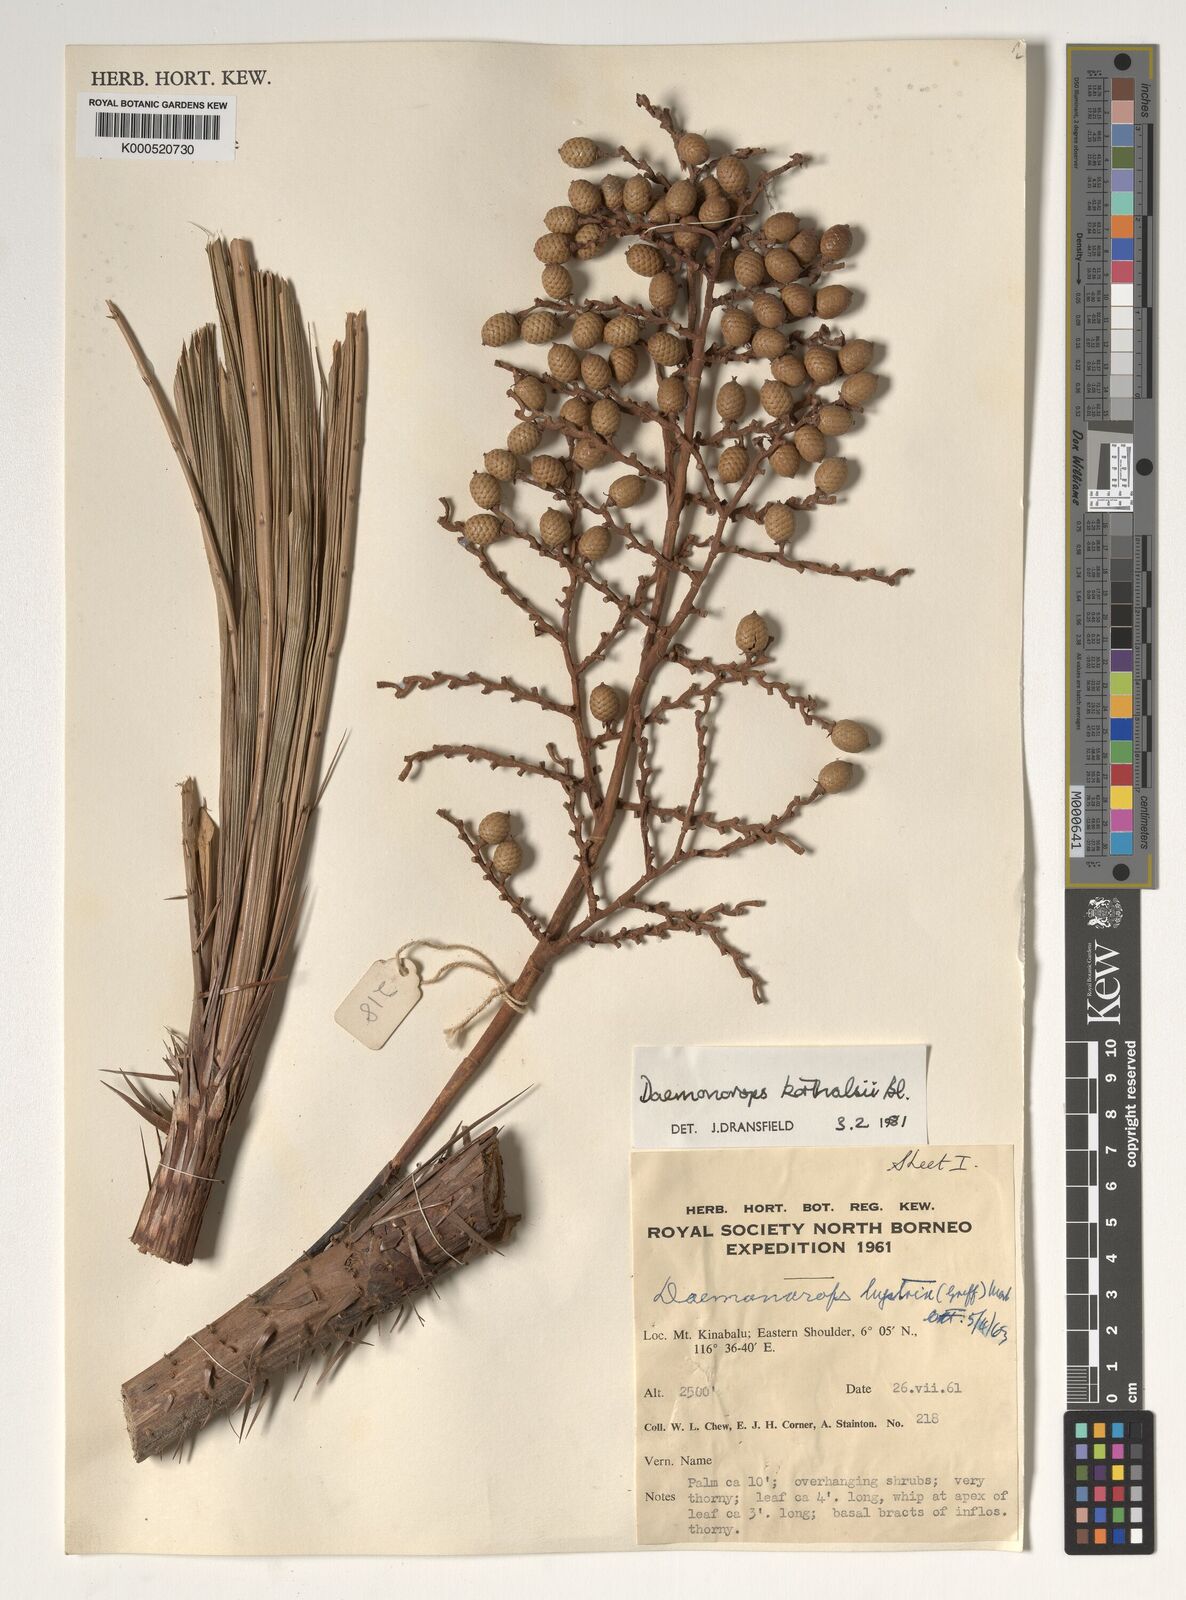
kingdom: Plantae
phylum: Tracheophyta
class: Liliopsida
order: Arecales
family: Arecaceae
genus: Calamus
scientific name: Calamus hirsutus
